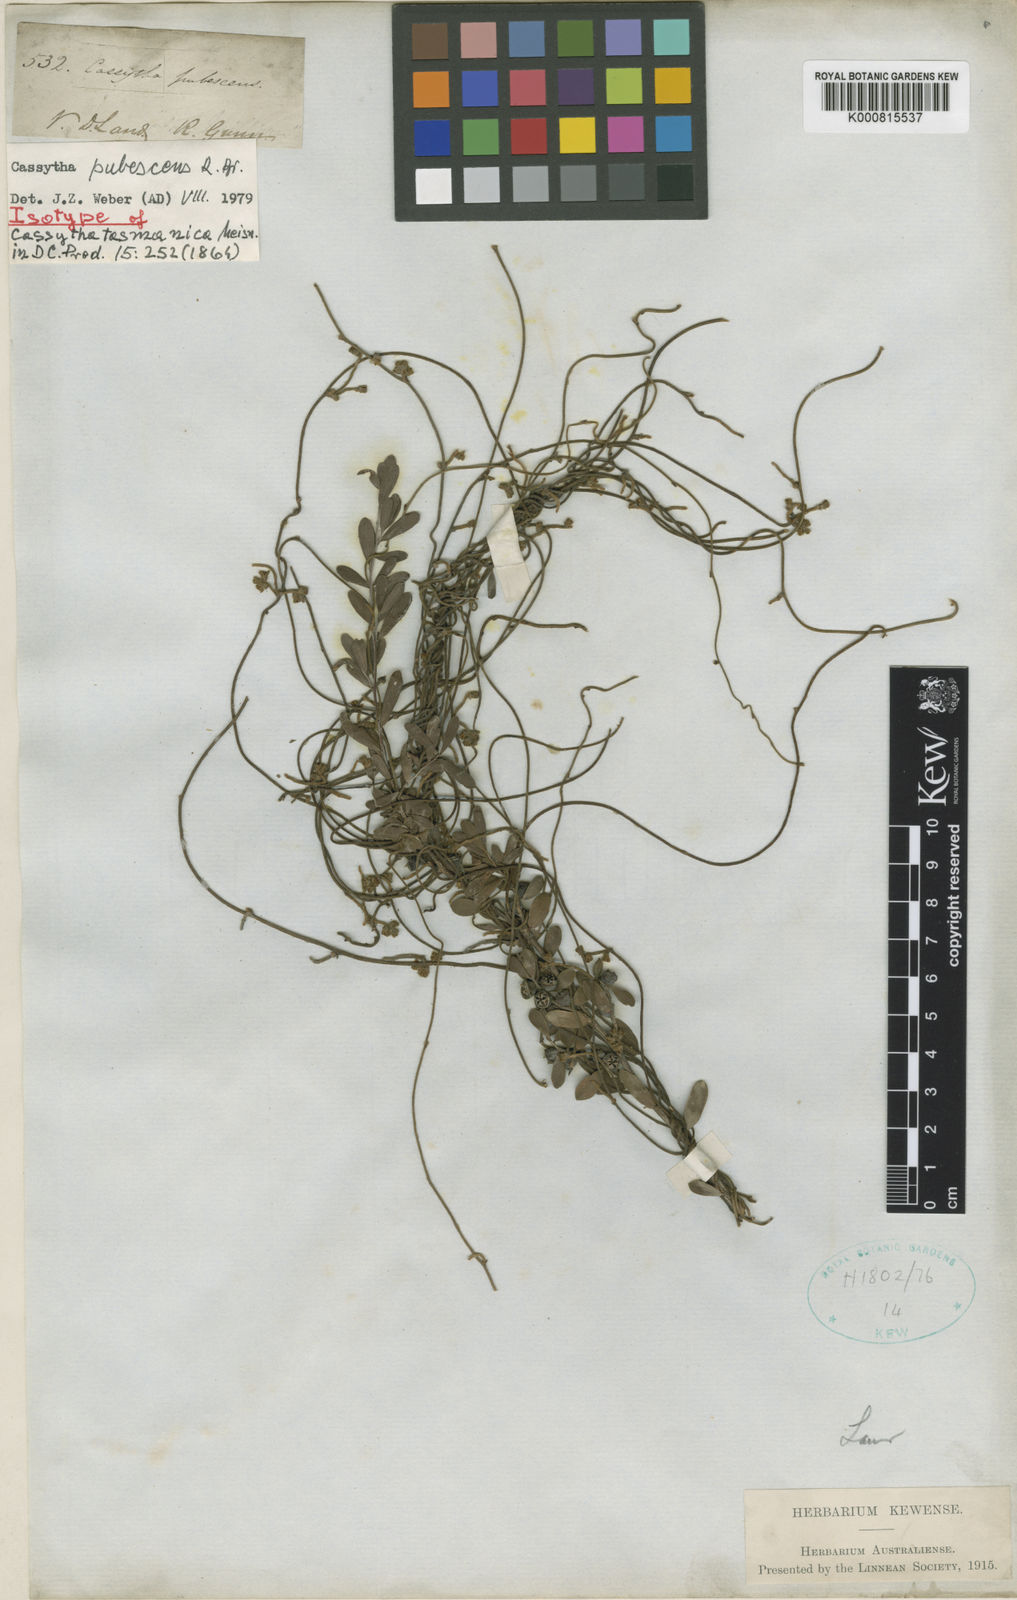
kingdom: Plantae
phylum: Tracheophyta
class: Magnoliopsida
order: Laurales
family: Lauraceae
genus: Cassytha
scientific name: Cassytha pubescens
